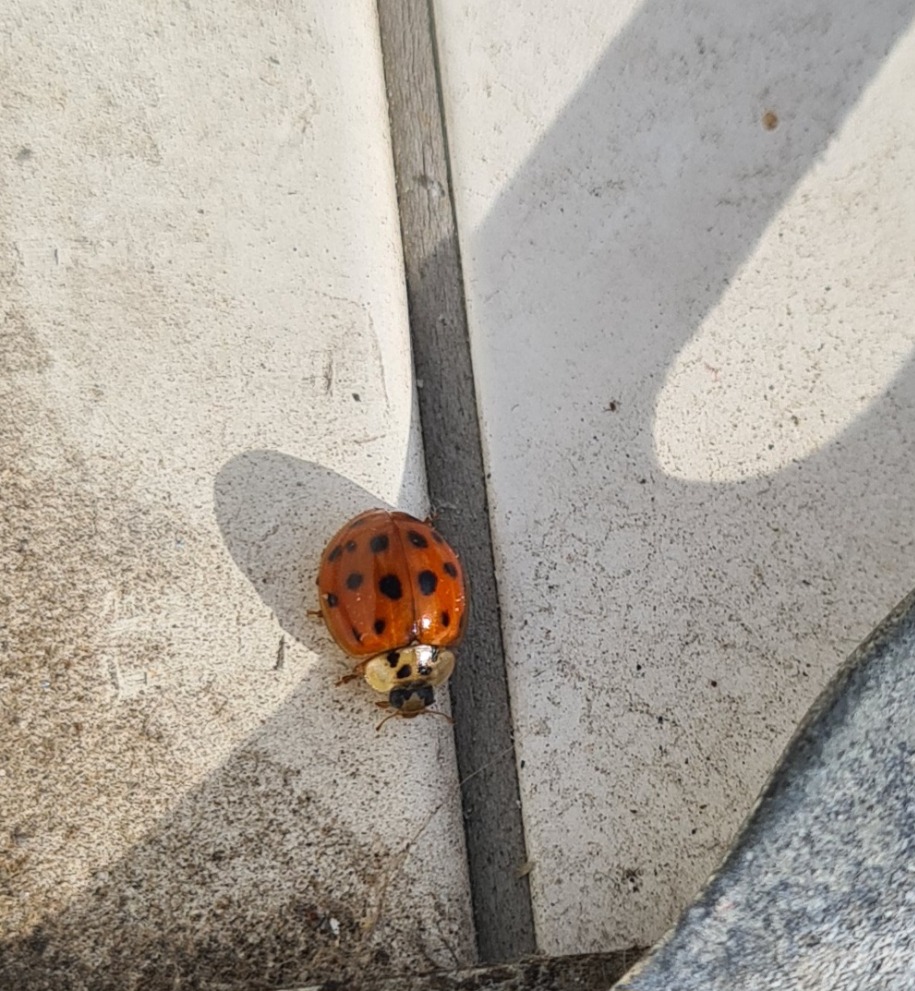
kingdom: Animalia
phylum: Arthropoda
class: Insecta
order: Coleoptera
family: Coccinellidae
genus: Harmonia
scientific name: Harmonia axyridis
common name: Harlekinmariehøne
